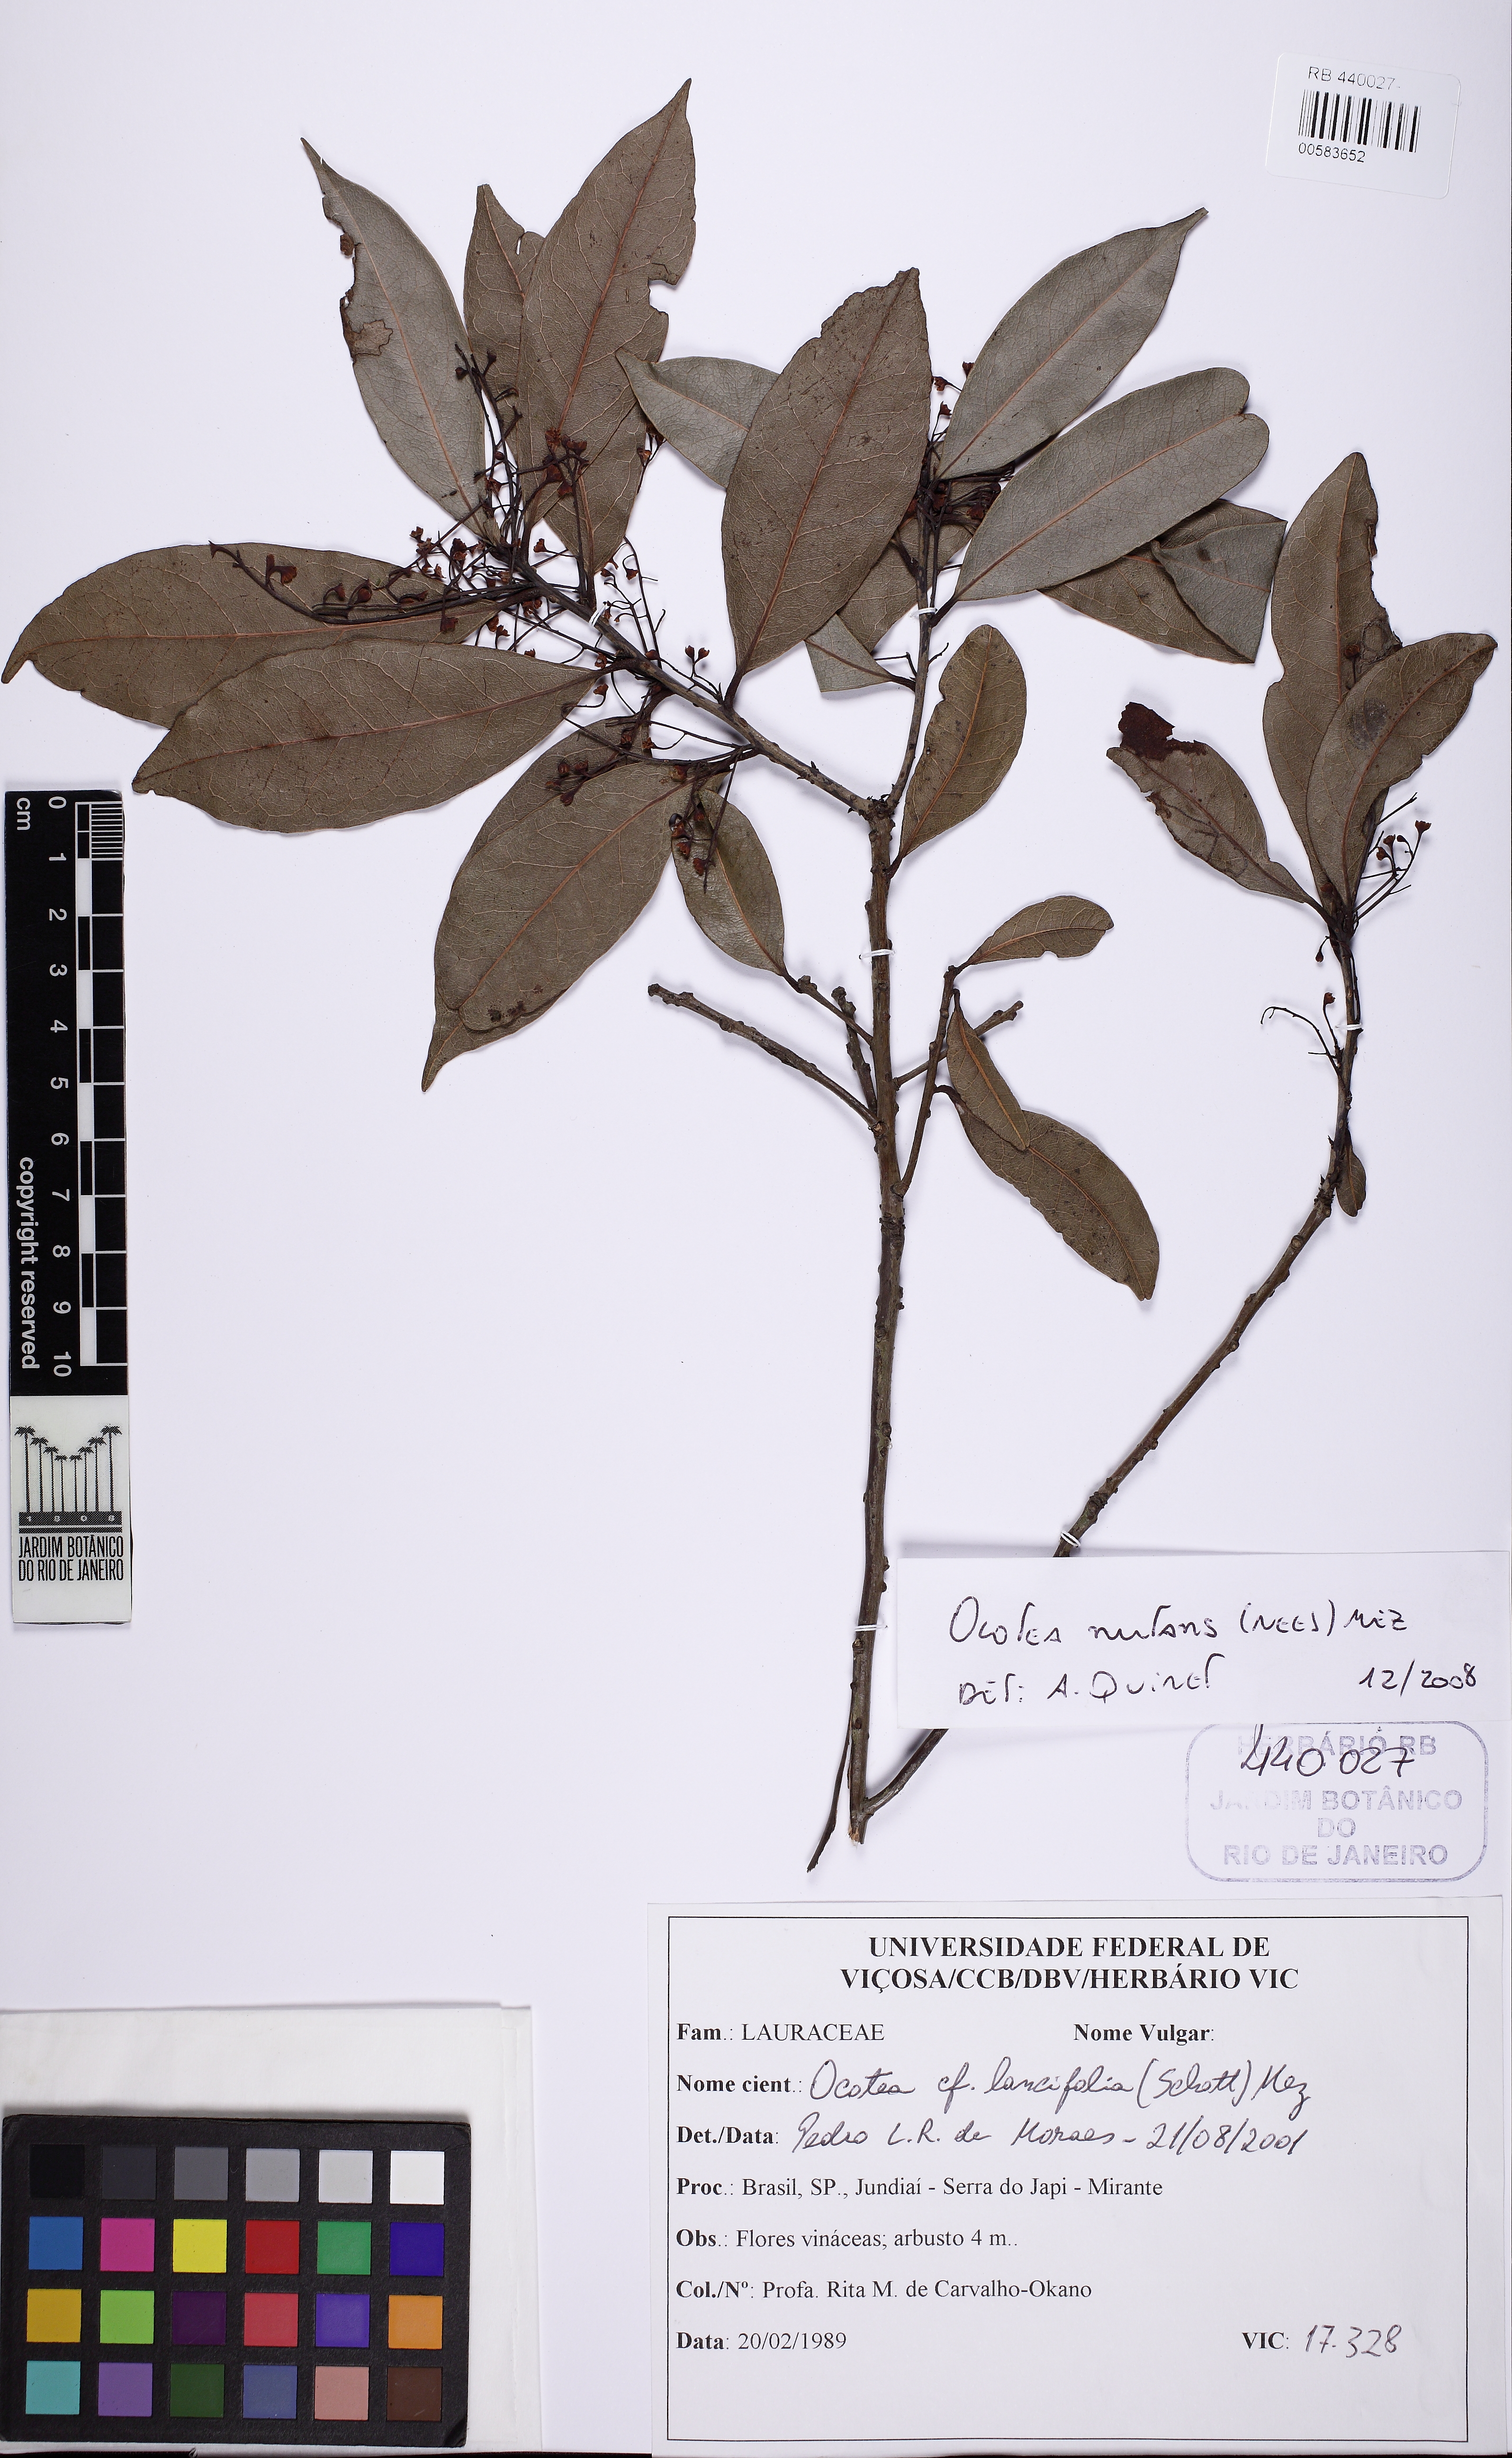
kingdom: Plantae
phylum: Tracheophyta
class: Magnoliopsida
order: Laurales
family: Lauraceae
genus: Mespilodaphne
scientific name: Mespilodaphne nutans
